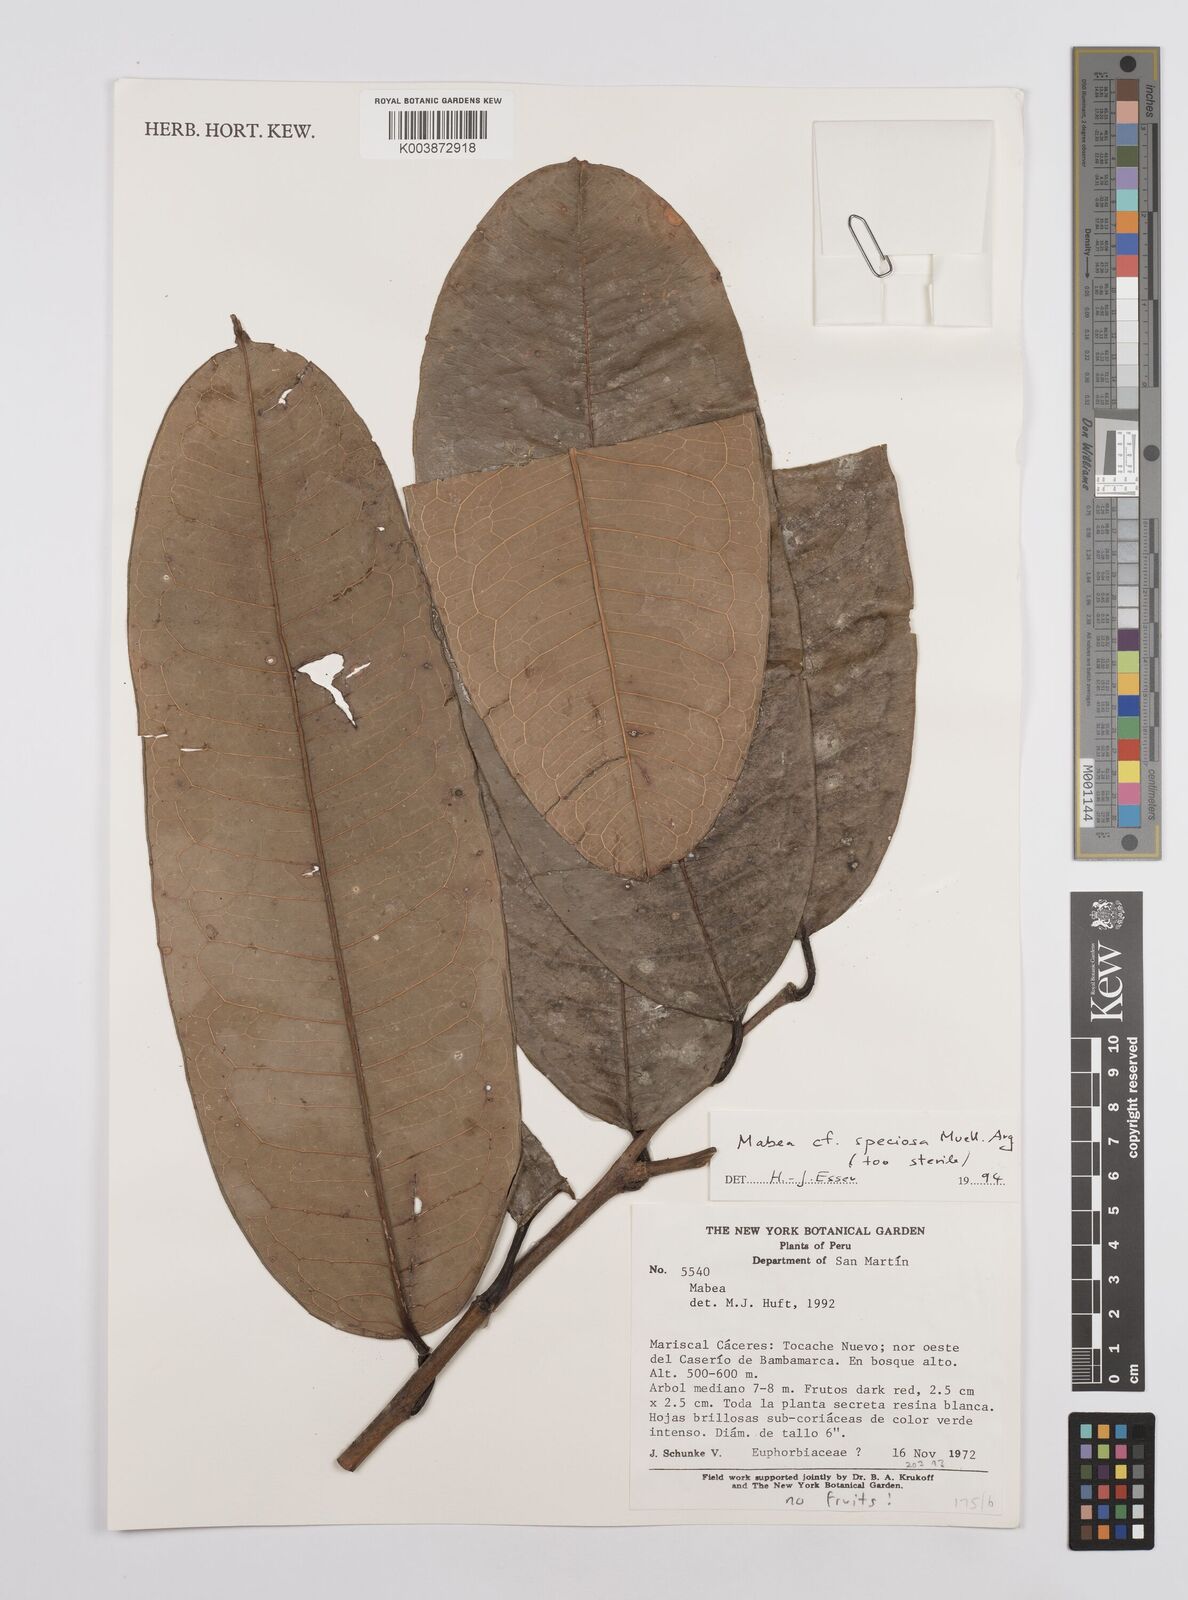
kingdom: Plantae
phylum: Tracheophyta
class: Magnoliopsida
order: Malpighiales
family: Euphorbiaceae
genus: Mabea
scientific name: Mabea speciosa
